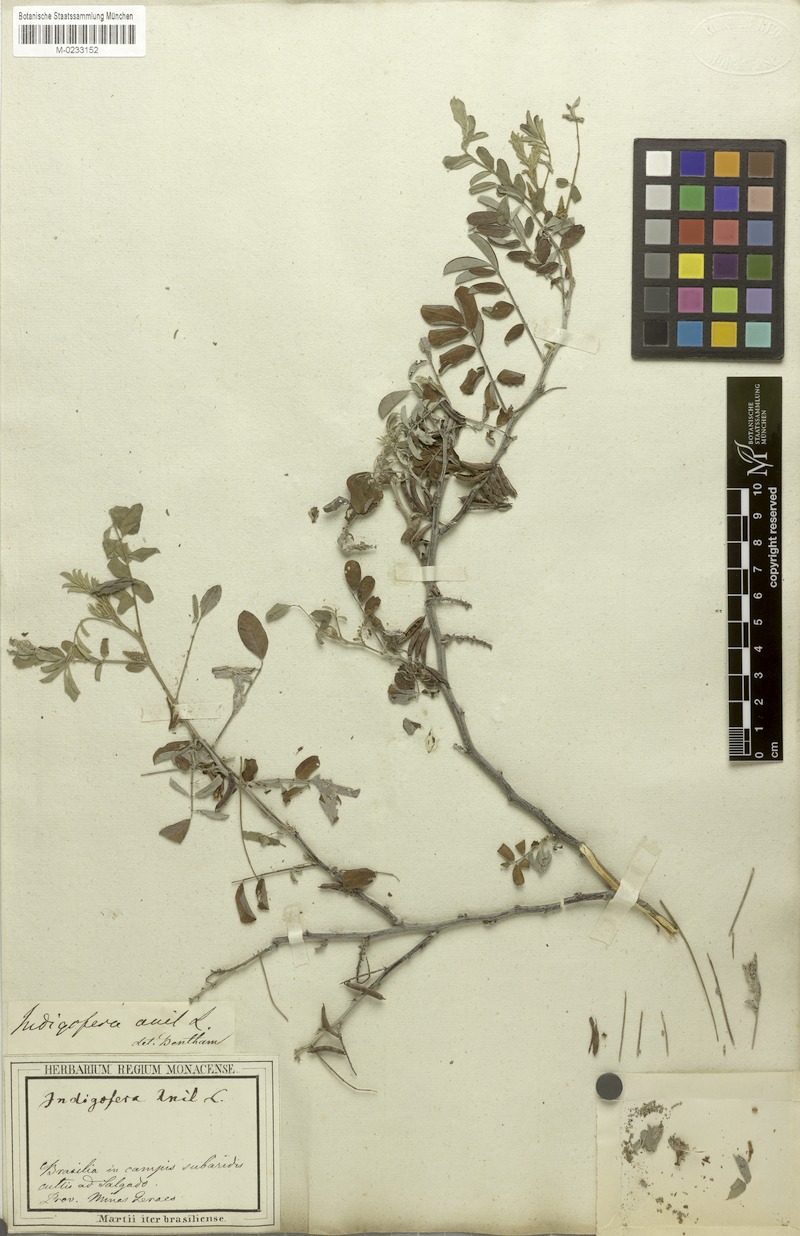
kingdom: Plantae
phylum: Tracheophyta
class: Magnoliopsida
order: Fabales
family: Fabaceae
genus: Indigofera
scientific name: Indigofera suffruticosa
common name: Anil de pasto
